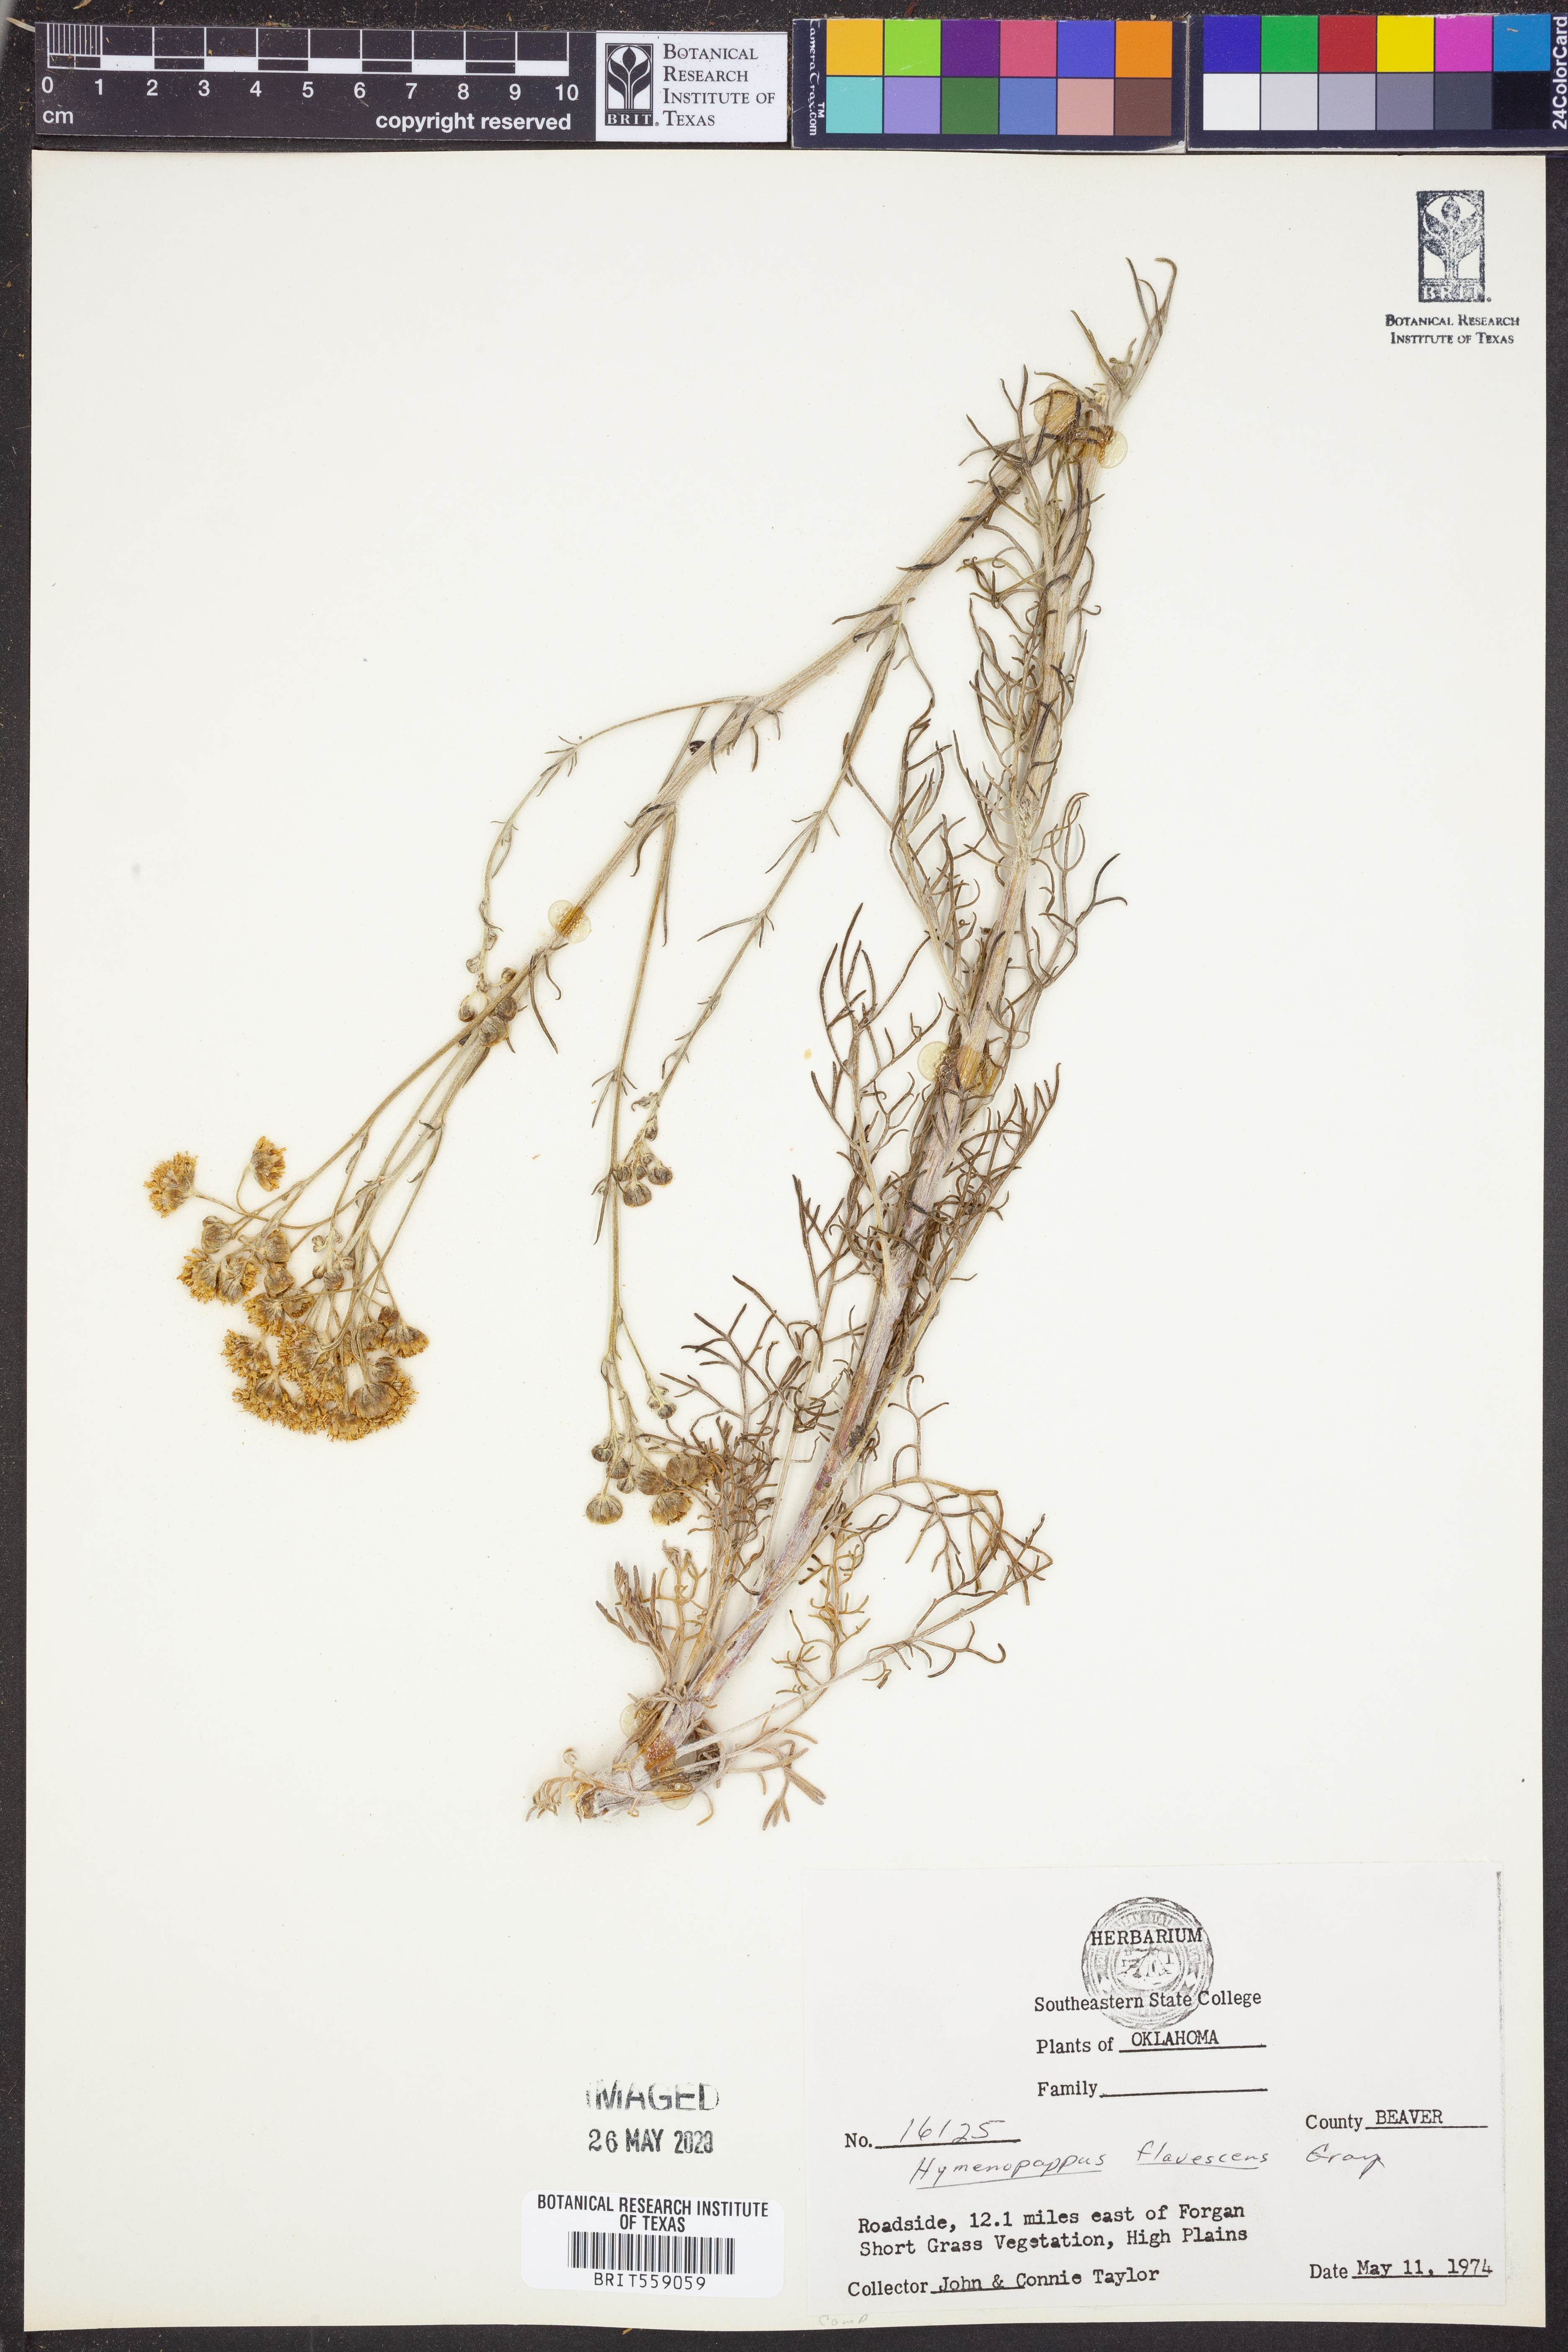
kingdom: Plantae
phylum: Tracheophyta
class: Magnoliopsida
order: Asterales
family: Asteraceae
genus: Hymenopappus
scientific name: Hymenopappus flavescens
